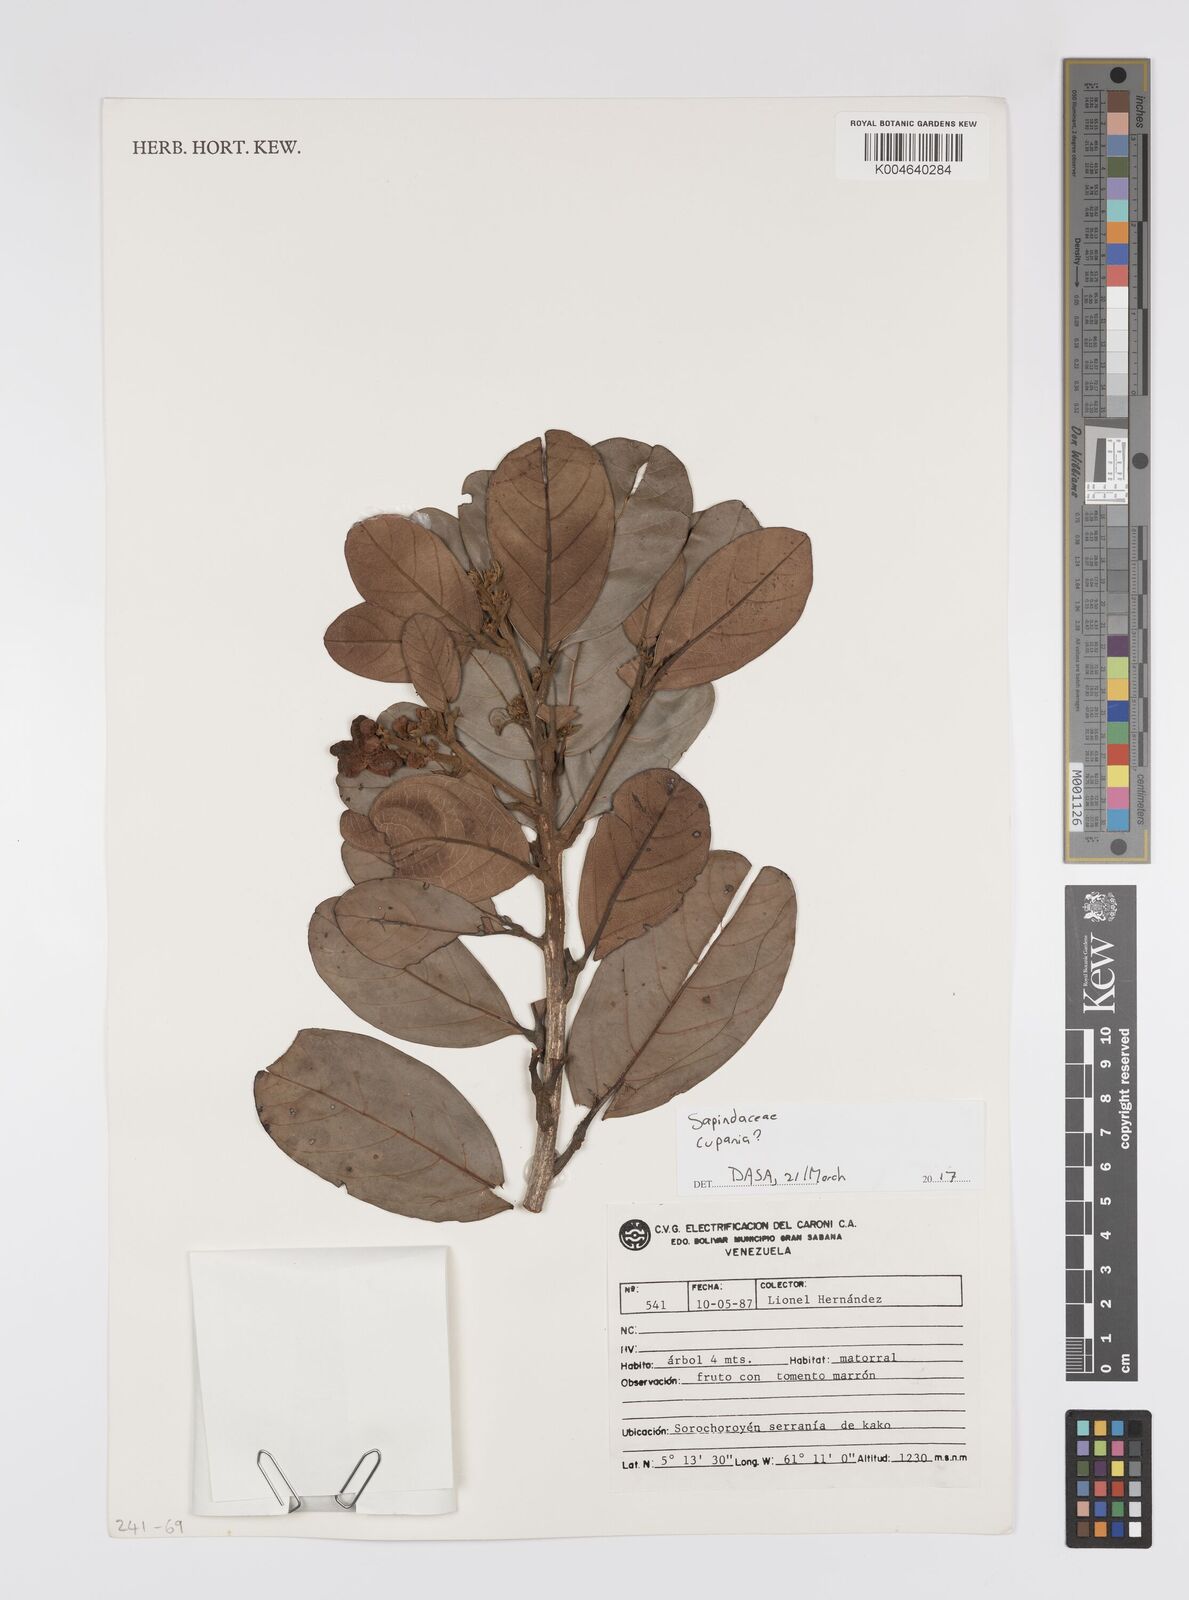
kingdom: Plantae
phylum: Tracheophyta
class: Magnoliopsida
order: Sapindales
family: Sapindaceae
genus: Cupania
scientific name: Cupania
